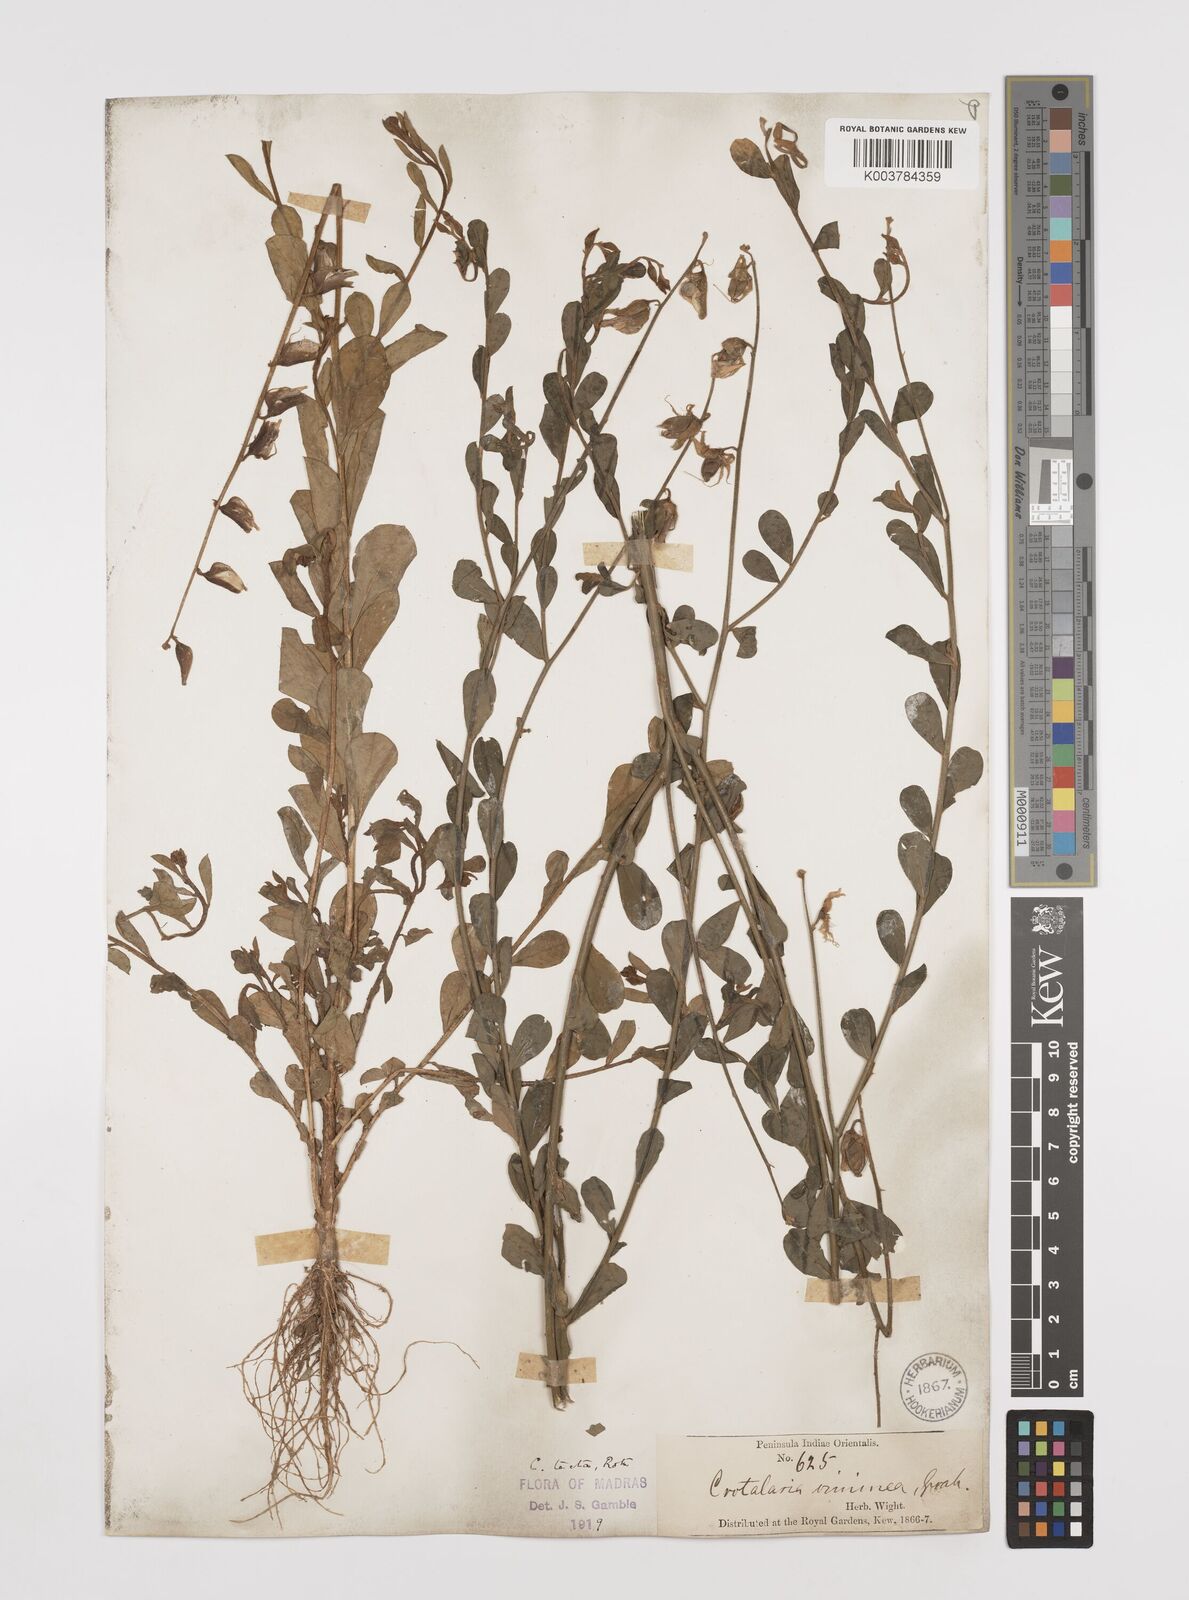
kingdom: Plantae
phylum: Tracheophyta
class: Magnoliopsida
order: Fabales
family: Fabaceae
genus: Crotalaria
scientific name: Crotalaria linifolia
